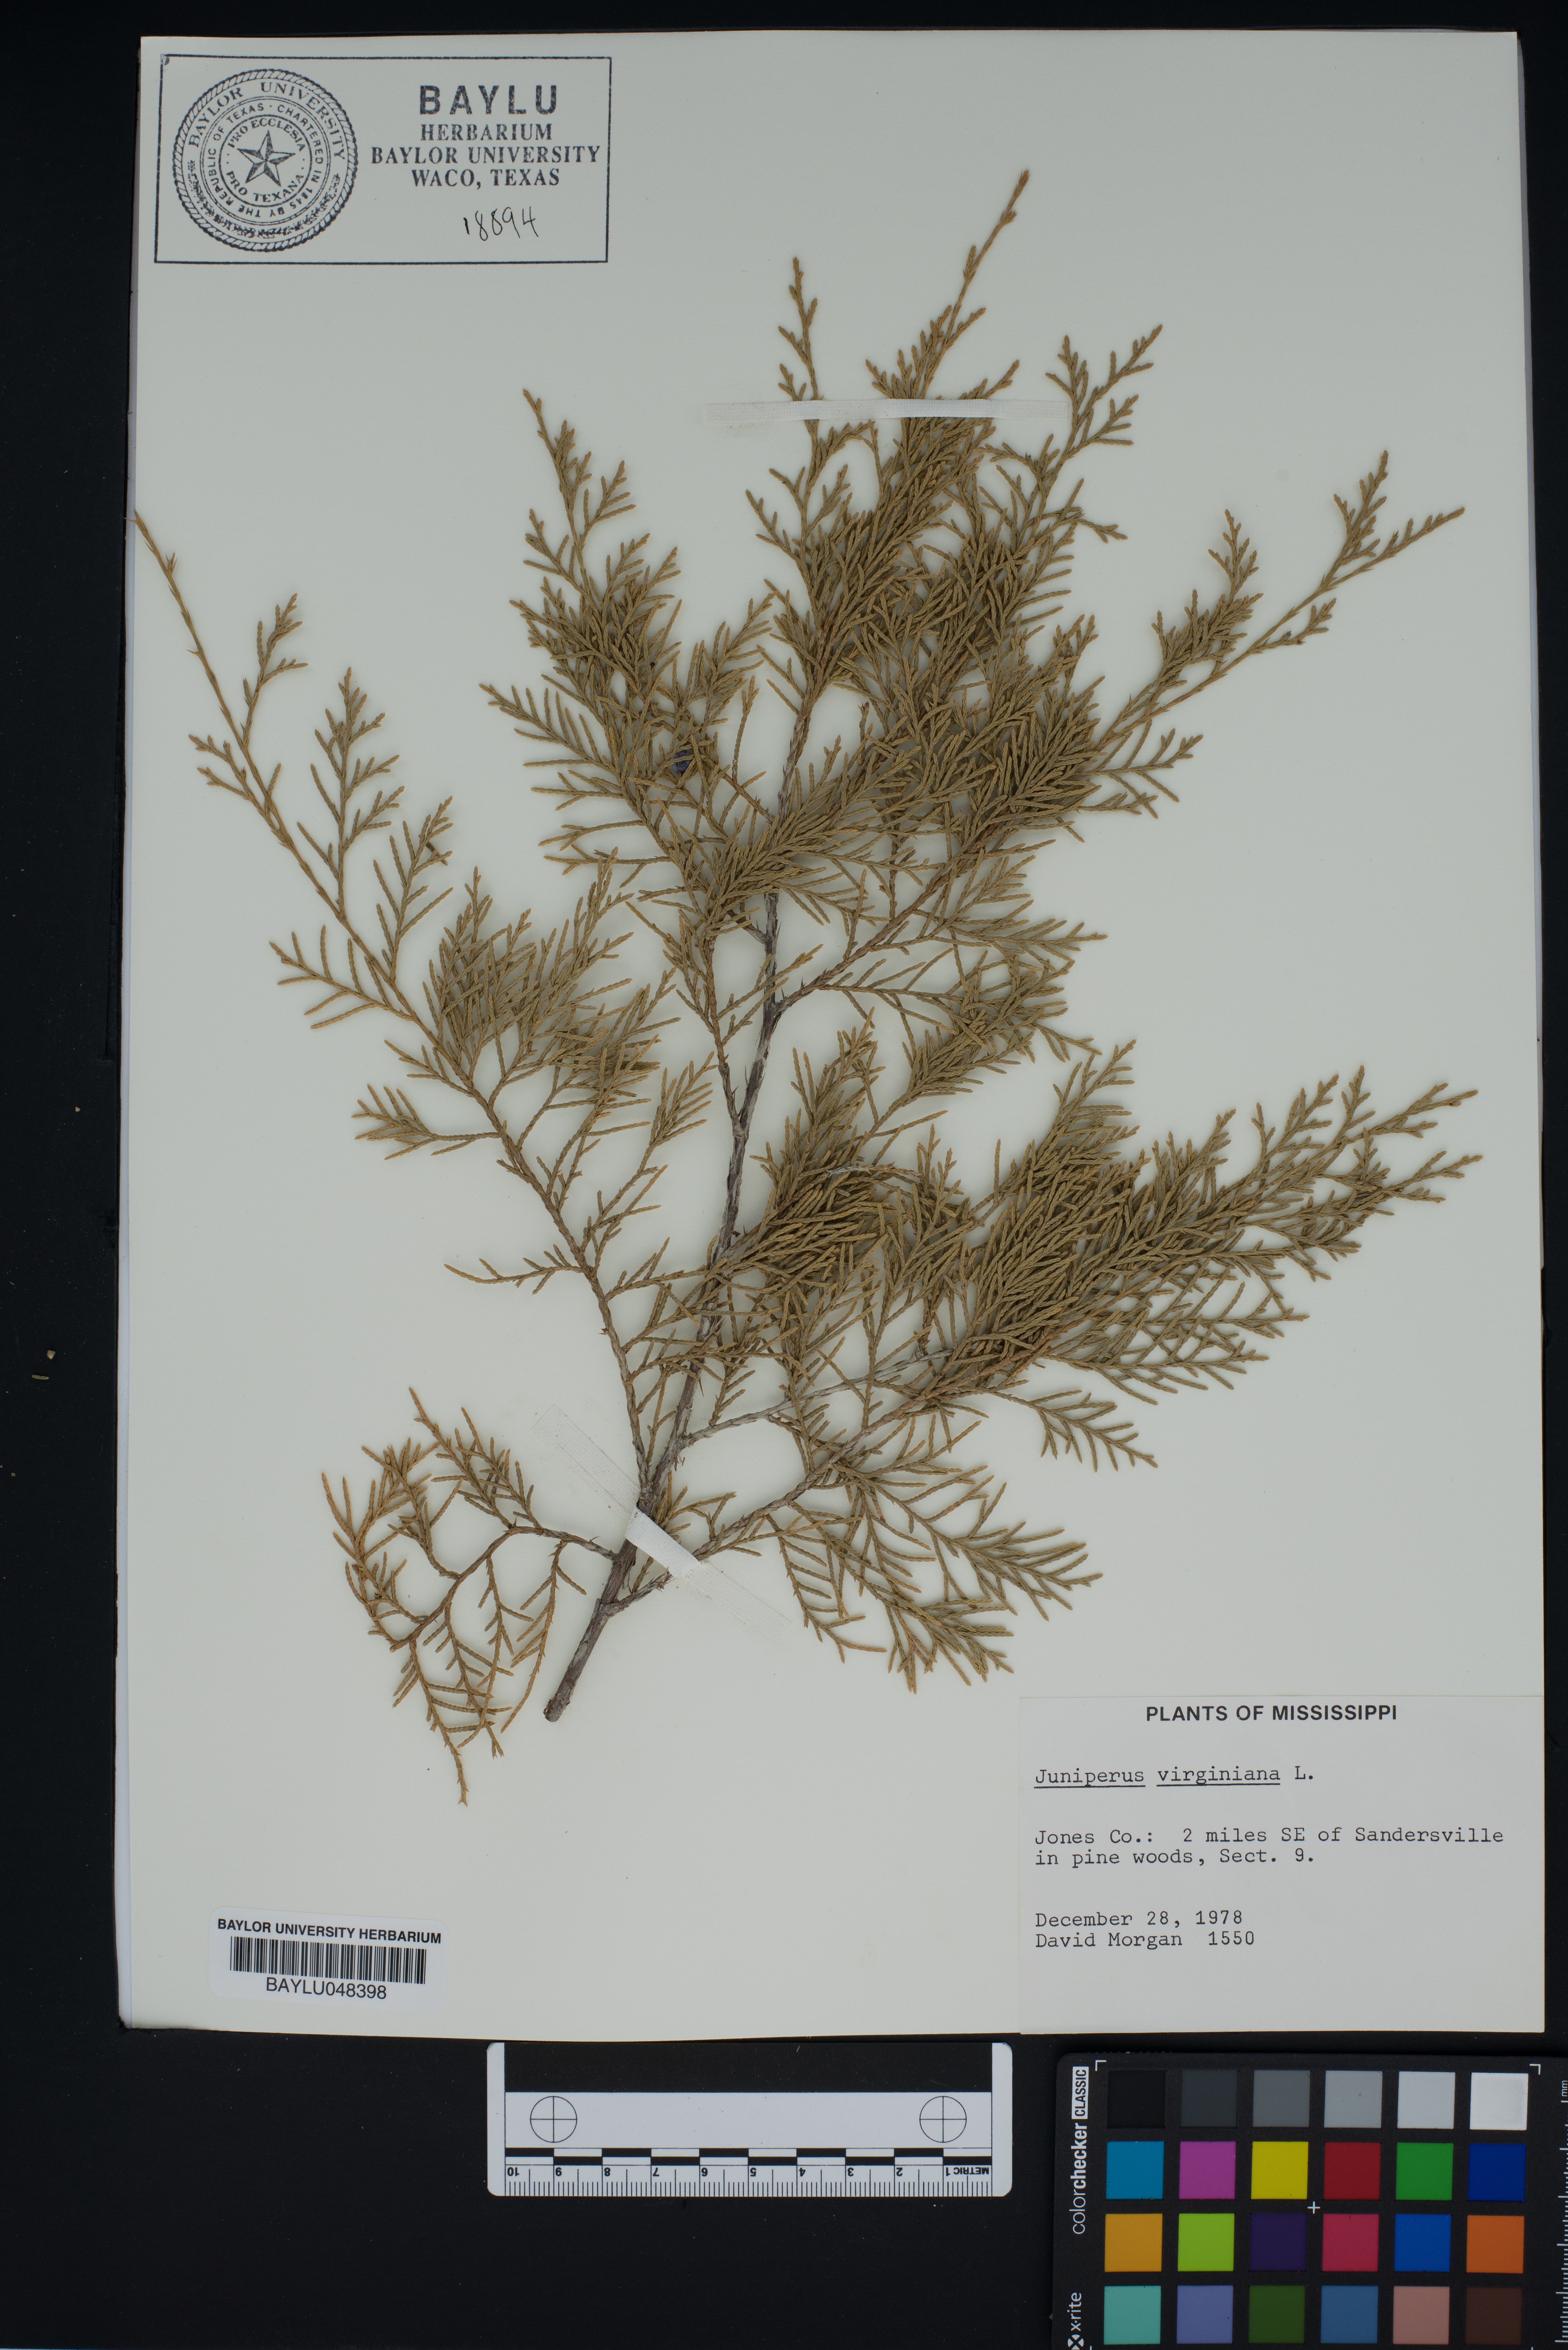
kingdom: Plantae
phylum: Tracheophyta
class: Pinopsida
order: Pinales
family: Cupressaceae
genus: Juniperus
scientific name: Juniperus virginiana
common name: Red juniper
